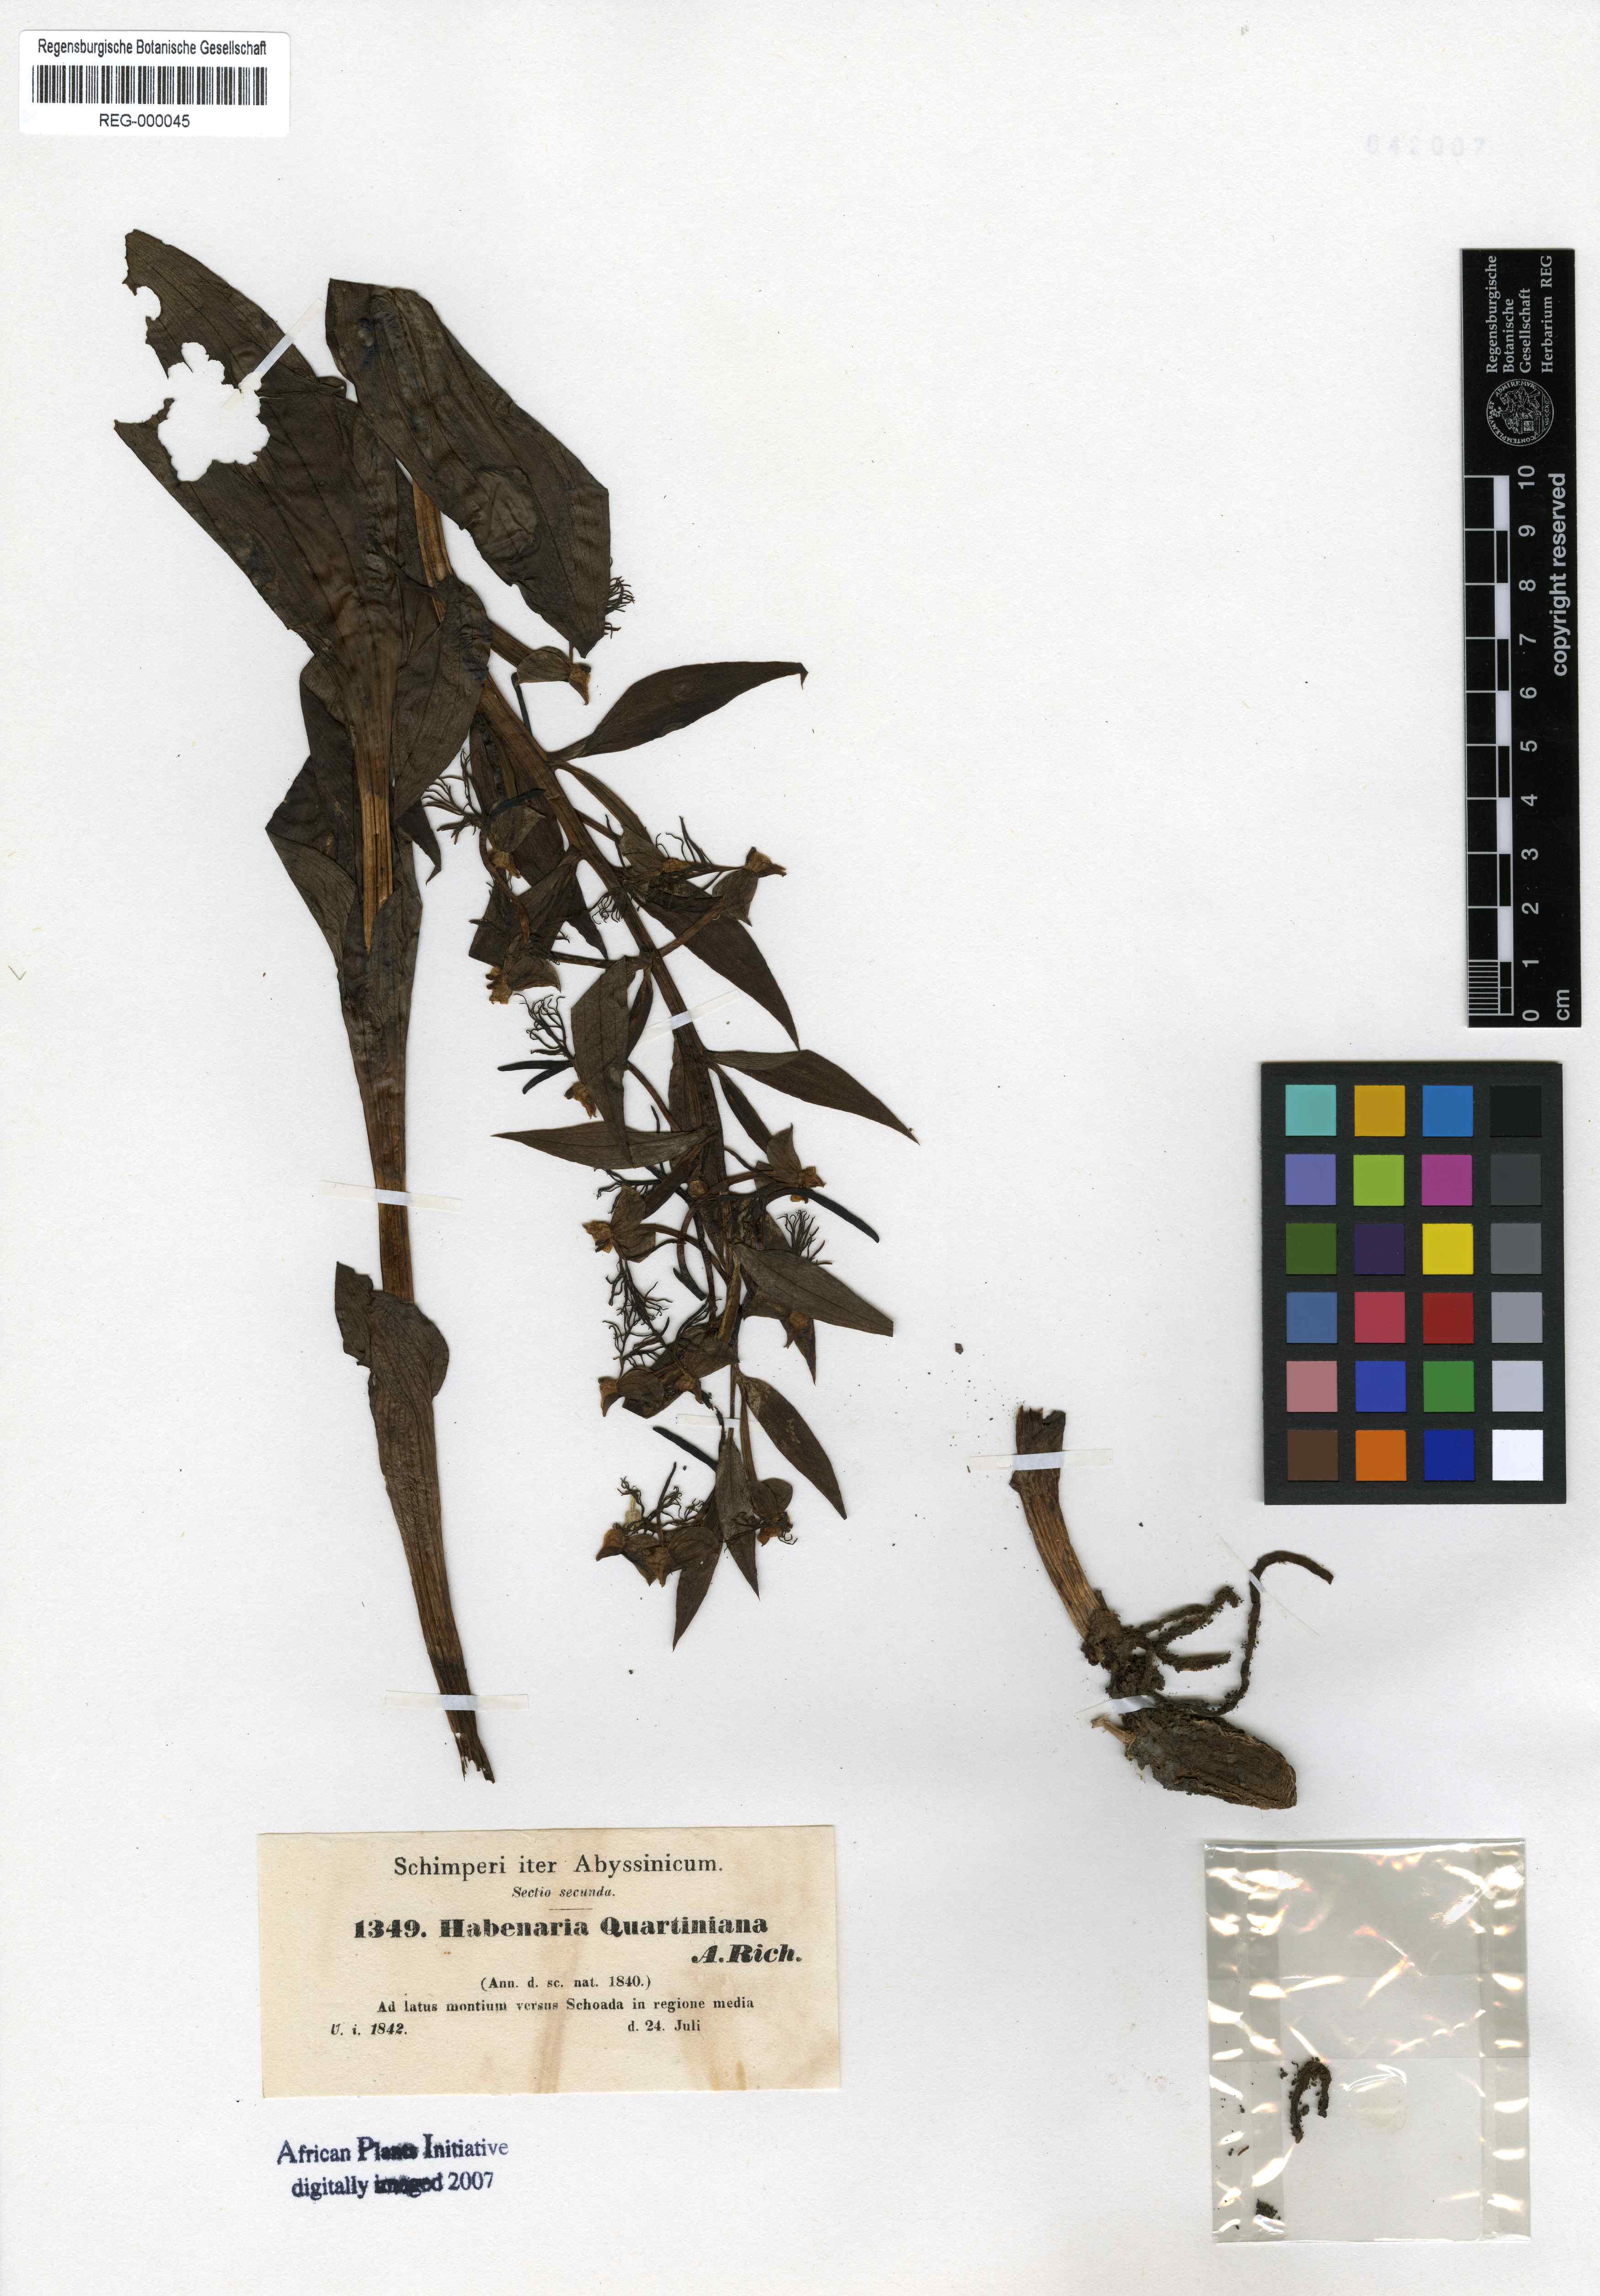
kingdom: Plantae
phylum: Tracheophyta
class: Liliopsida
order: Asparagales
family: Orchidaceae
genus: Habenaria
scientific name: Habenaria quartiniana
